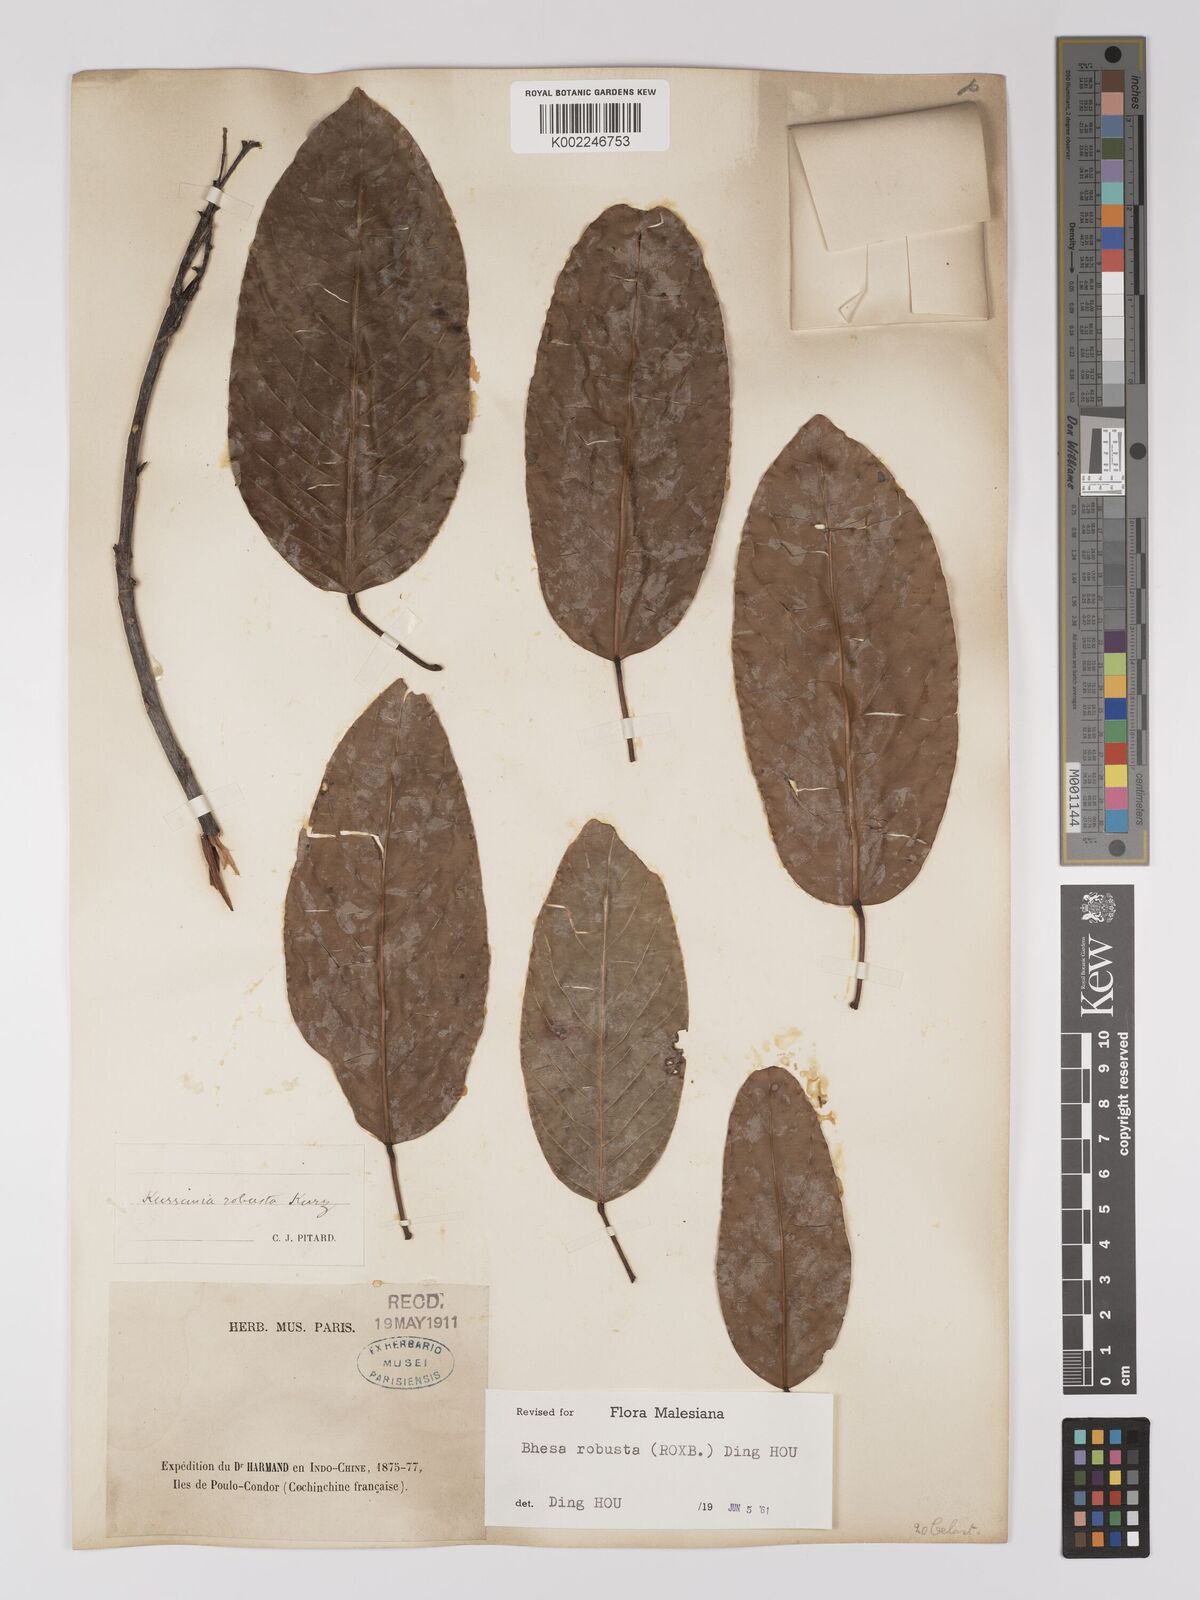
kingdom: Plantae
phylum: Tracheophyta
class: Magnoliopsida
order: Malpighiales
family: Centroplacaceae
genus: Bhesa
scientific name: Bhesa robusta
